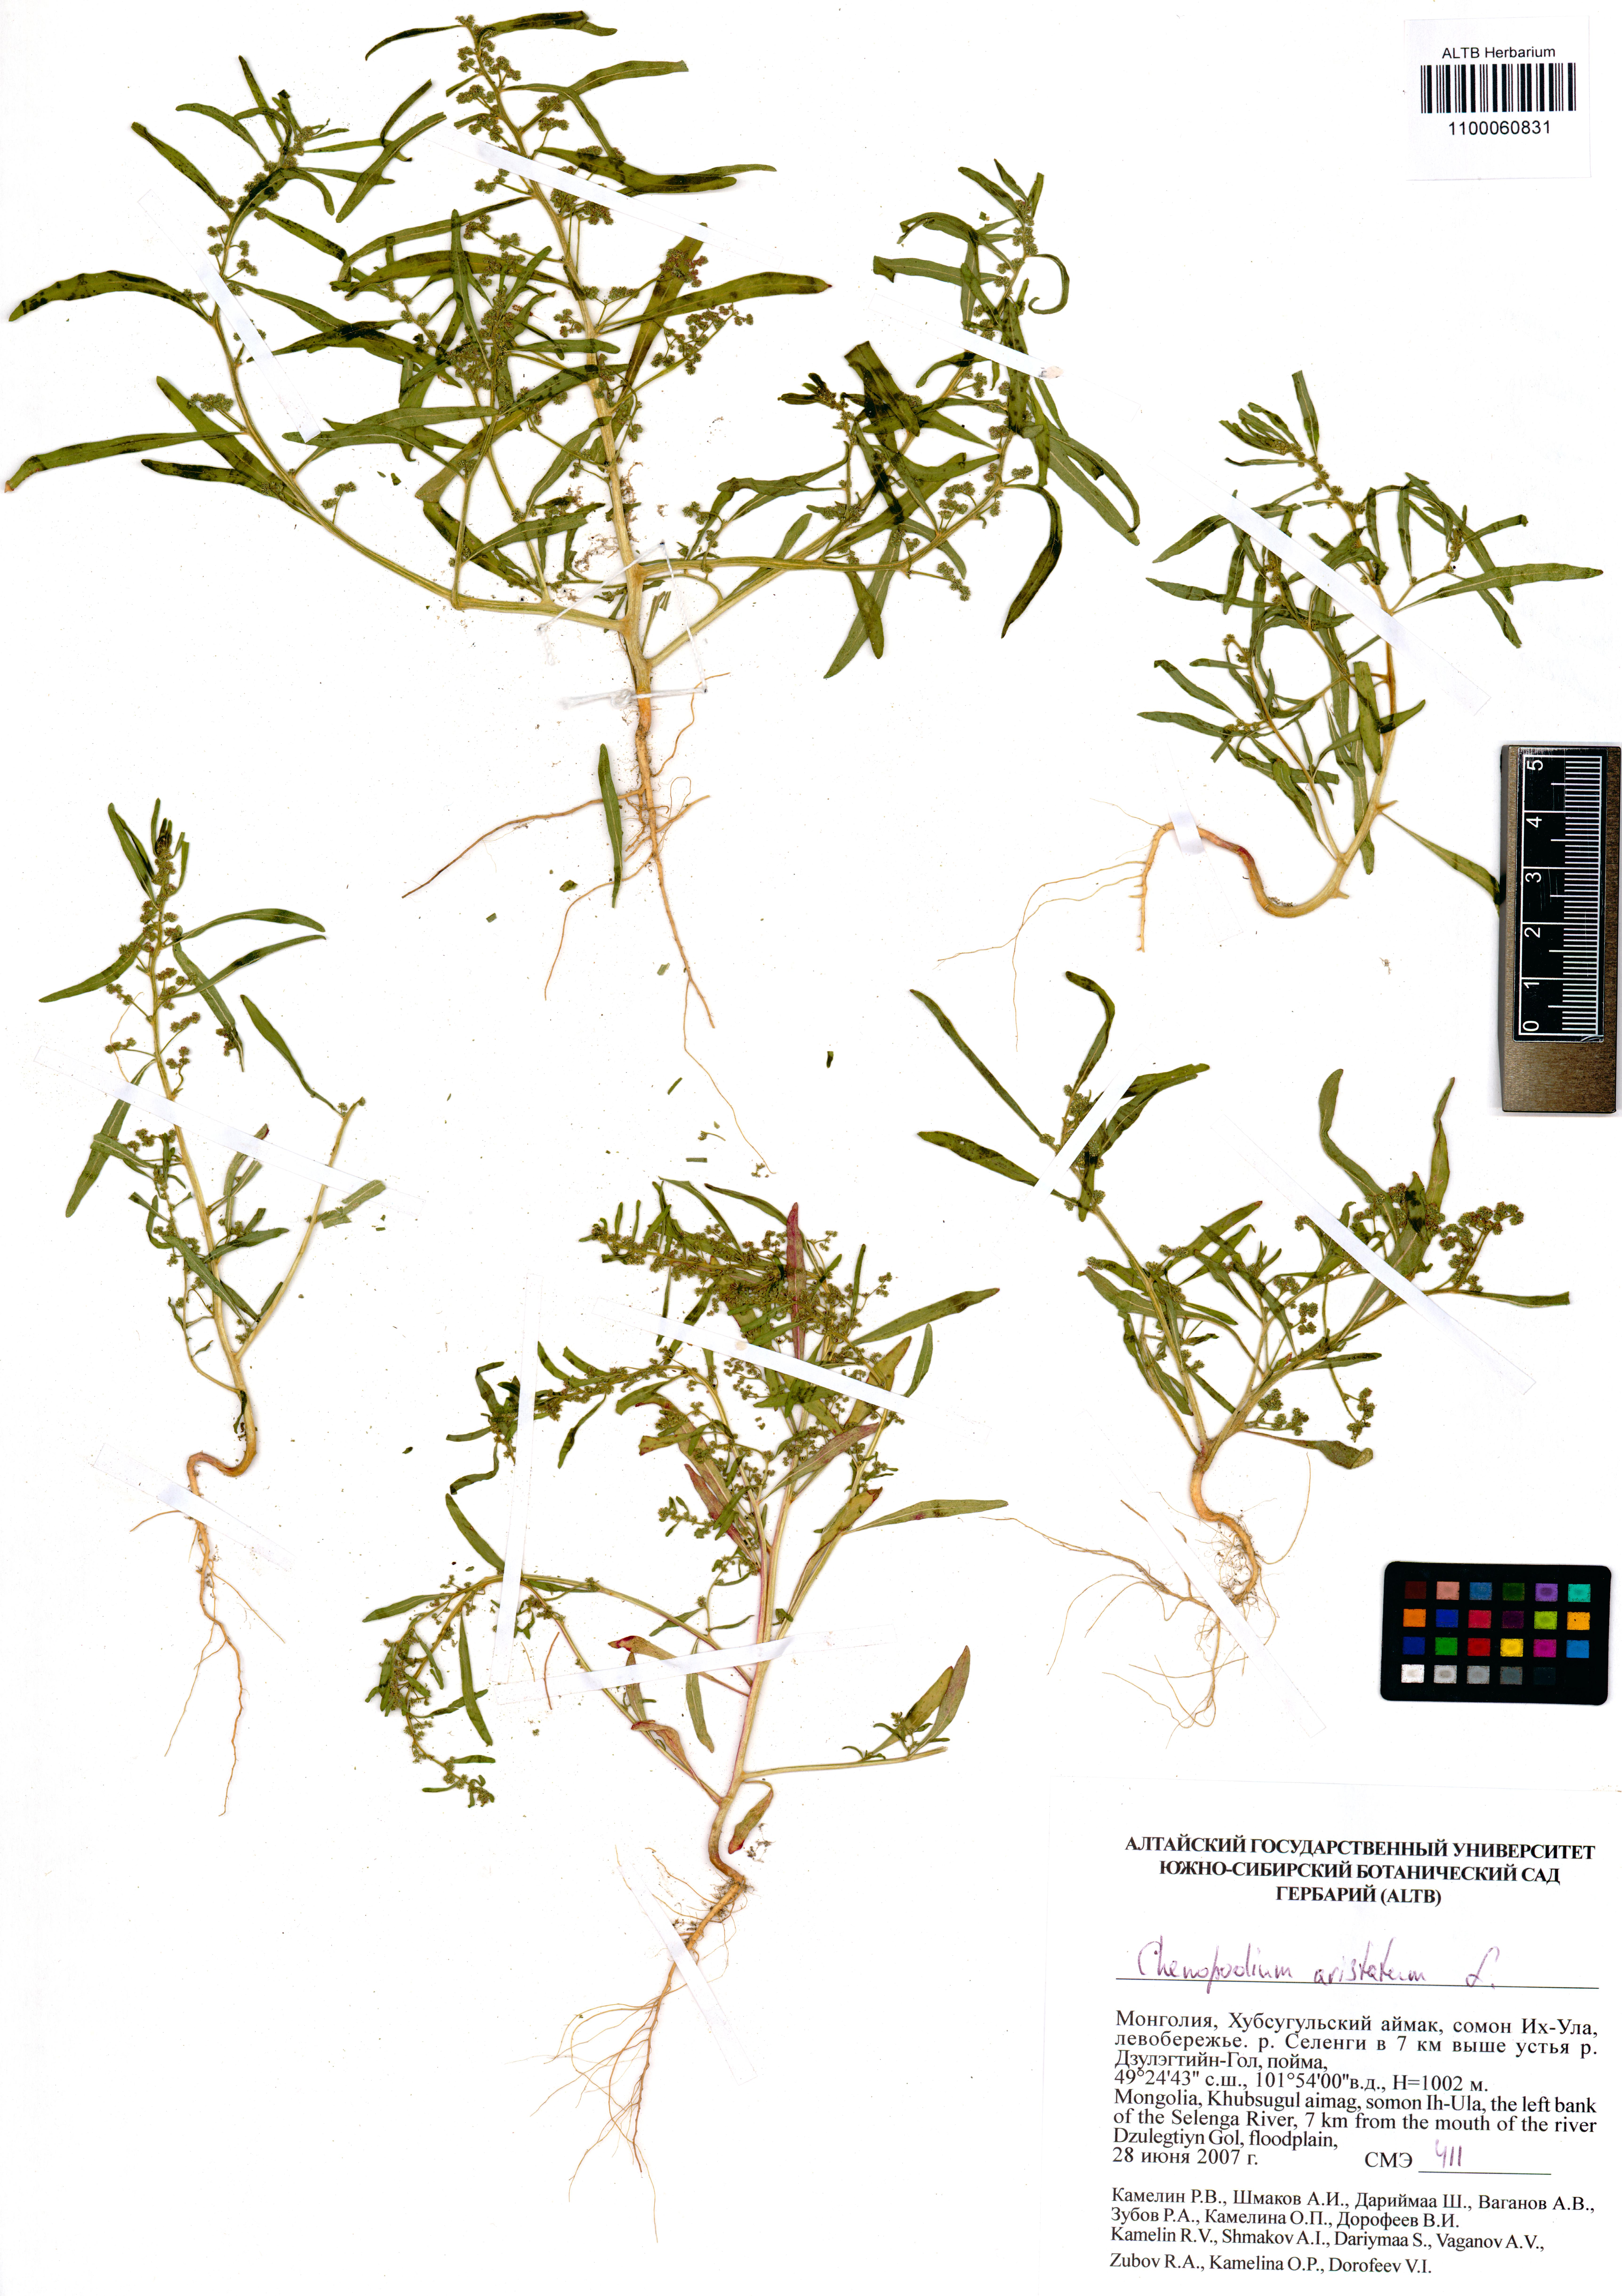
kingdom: Plantae
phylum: Tracheophyta
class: Magnoliopsida
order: Caryophyllales
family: Amaranthaceae
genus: Teloxys
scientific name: Teloxys aristata
